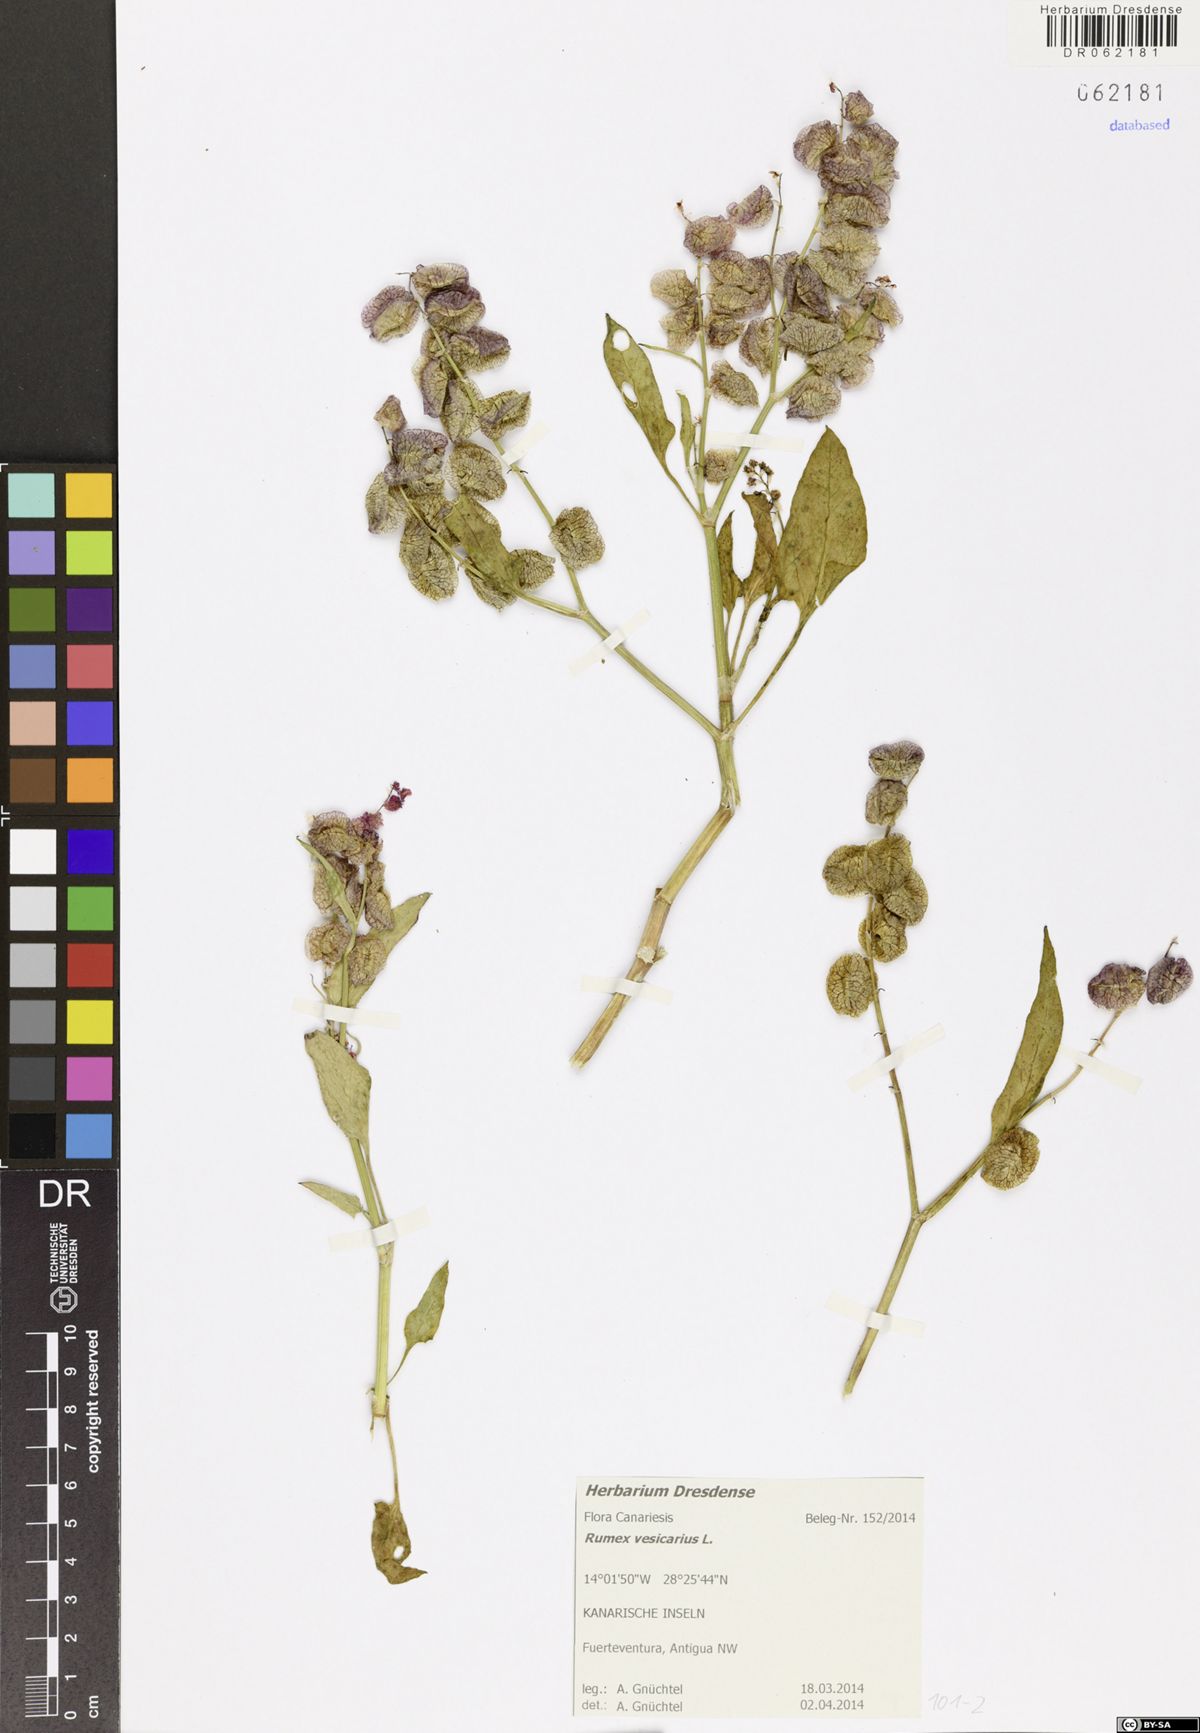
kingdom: Plantae
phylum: Tracheophyta
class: Magnoliopsida
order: Caryophyllales
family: Polygonaceae
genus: Rumex
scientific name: Rumex vesicarius
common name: Bladder dock
